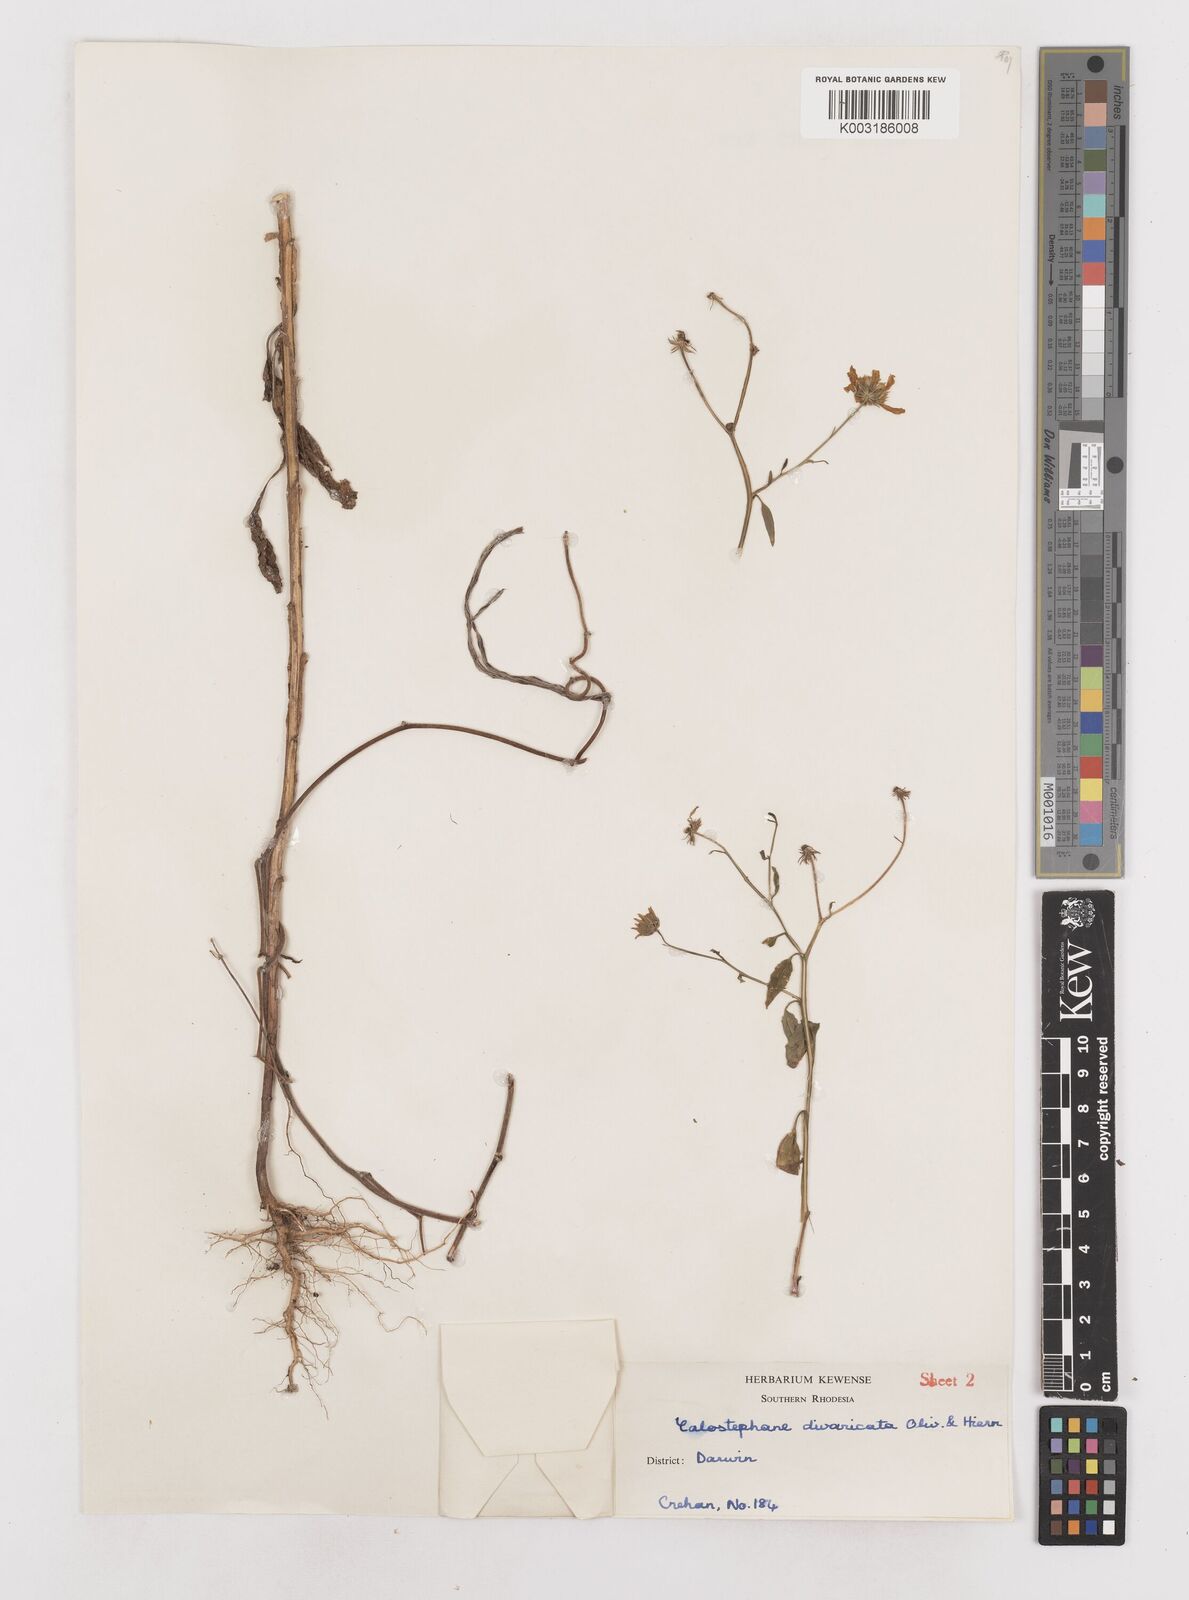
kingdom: Plantae
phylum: Tracheophyta
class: Magnoliopsida
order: Asterales
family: Asteraceae
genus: Calostephane
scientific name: Calostephane divaricata
